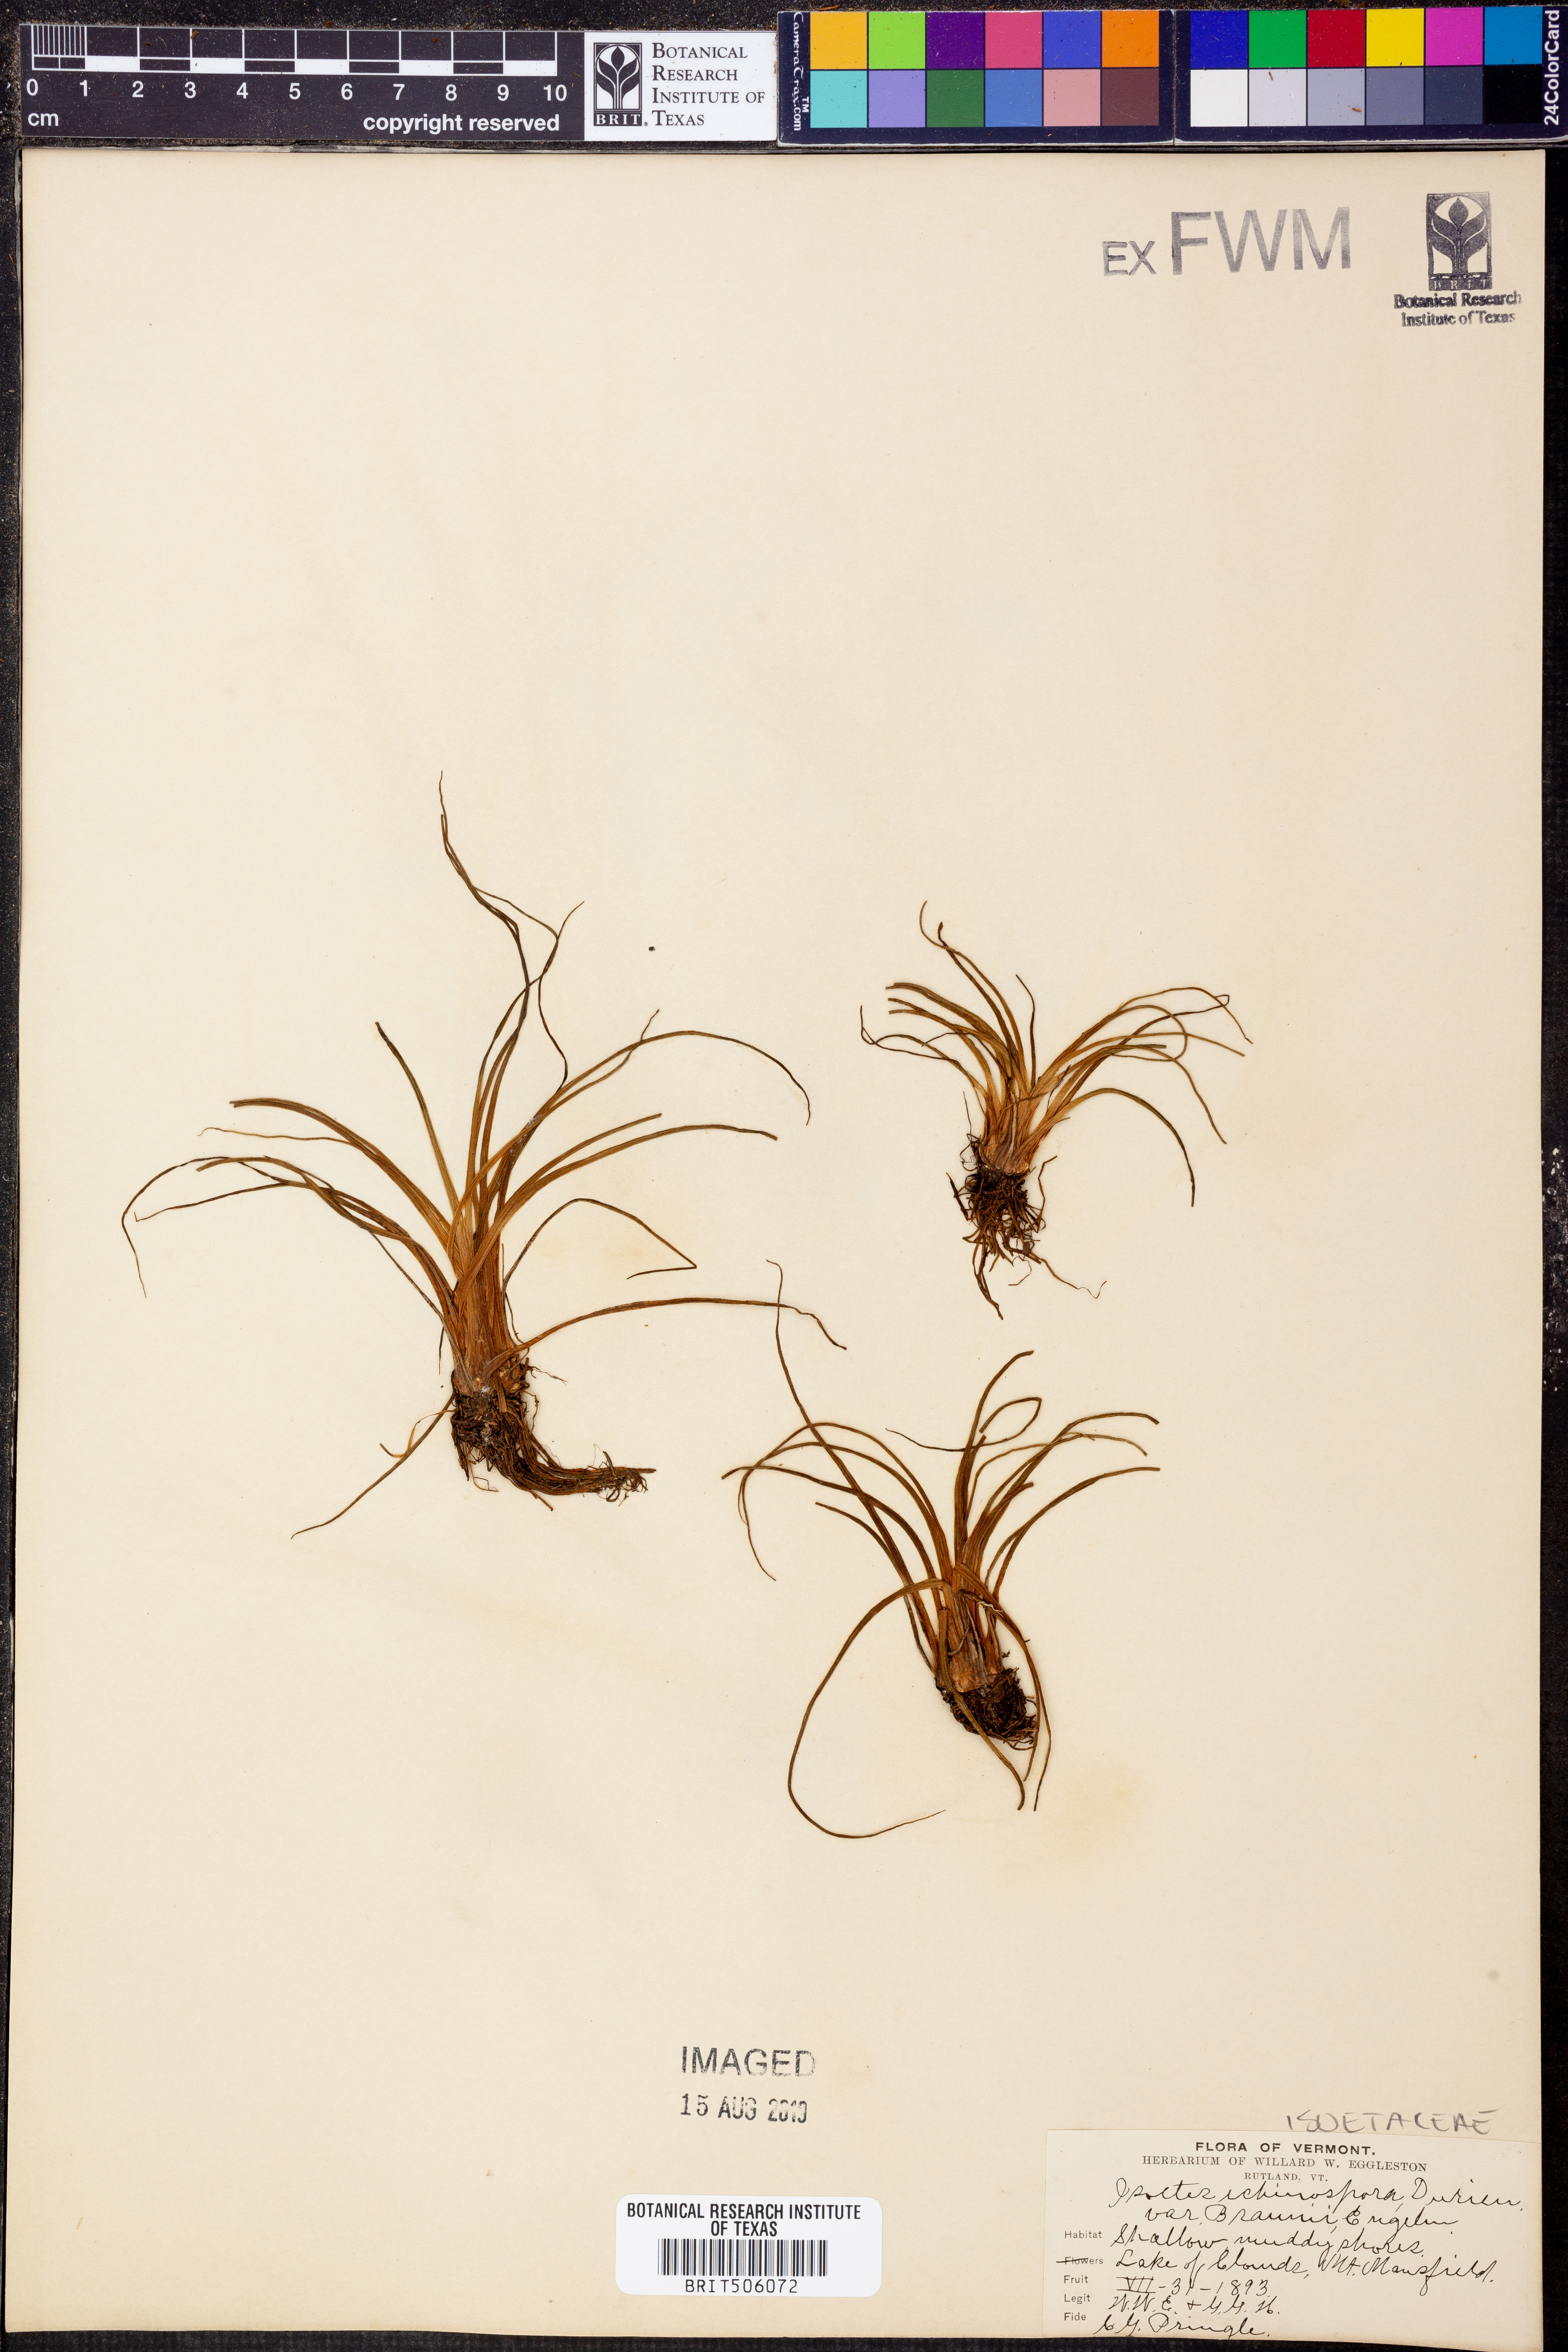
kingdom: Plantae
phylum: Tracheophyta
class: Lycopodiopsida
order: Isoetales
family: Isoetaceae
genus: Isoetes
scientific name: Isoetes echinospora
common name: Spring quillwort
